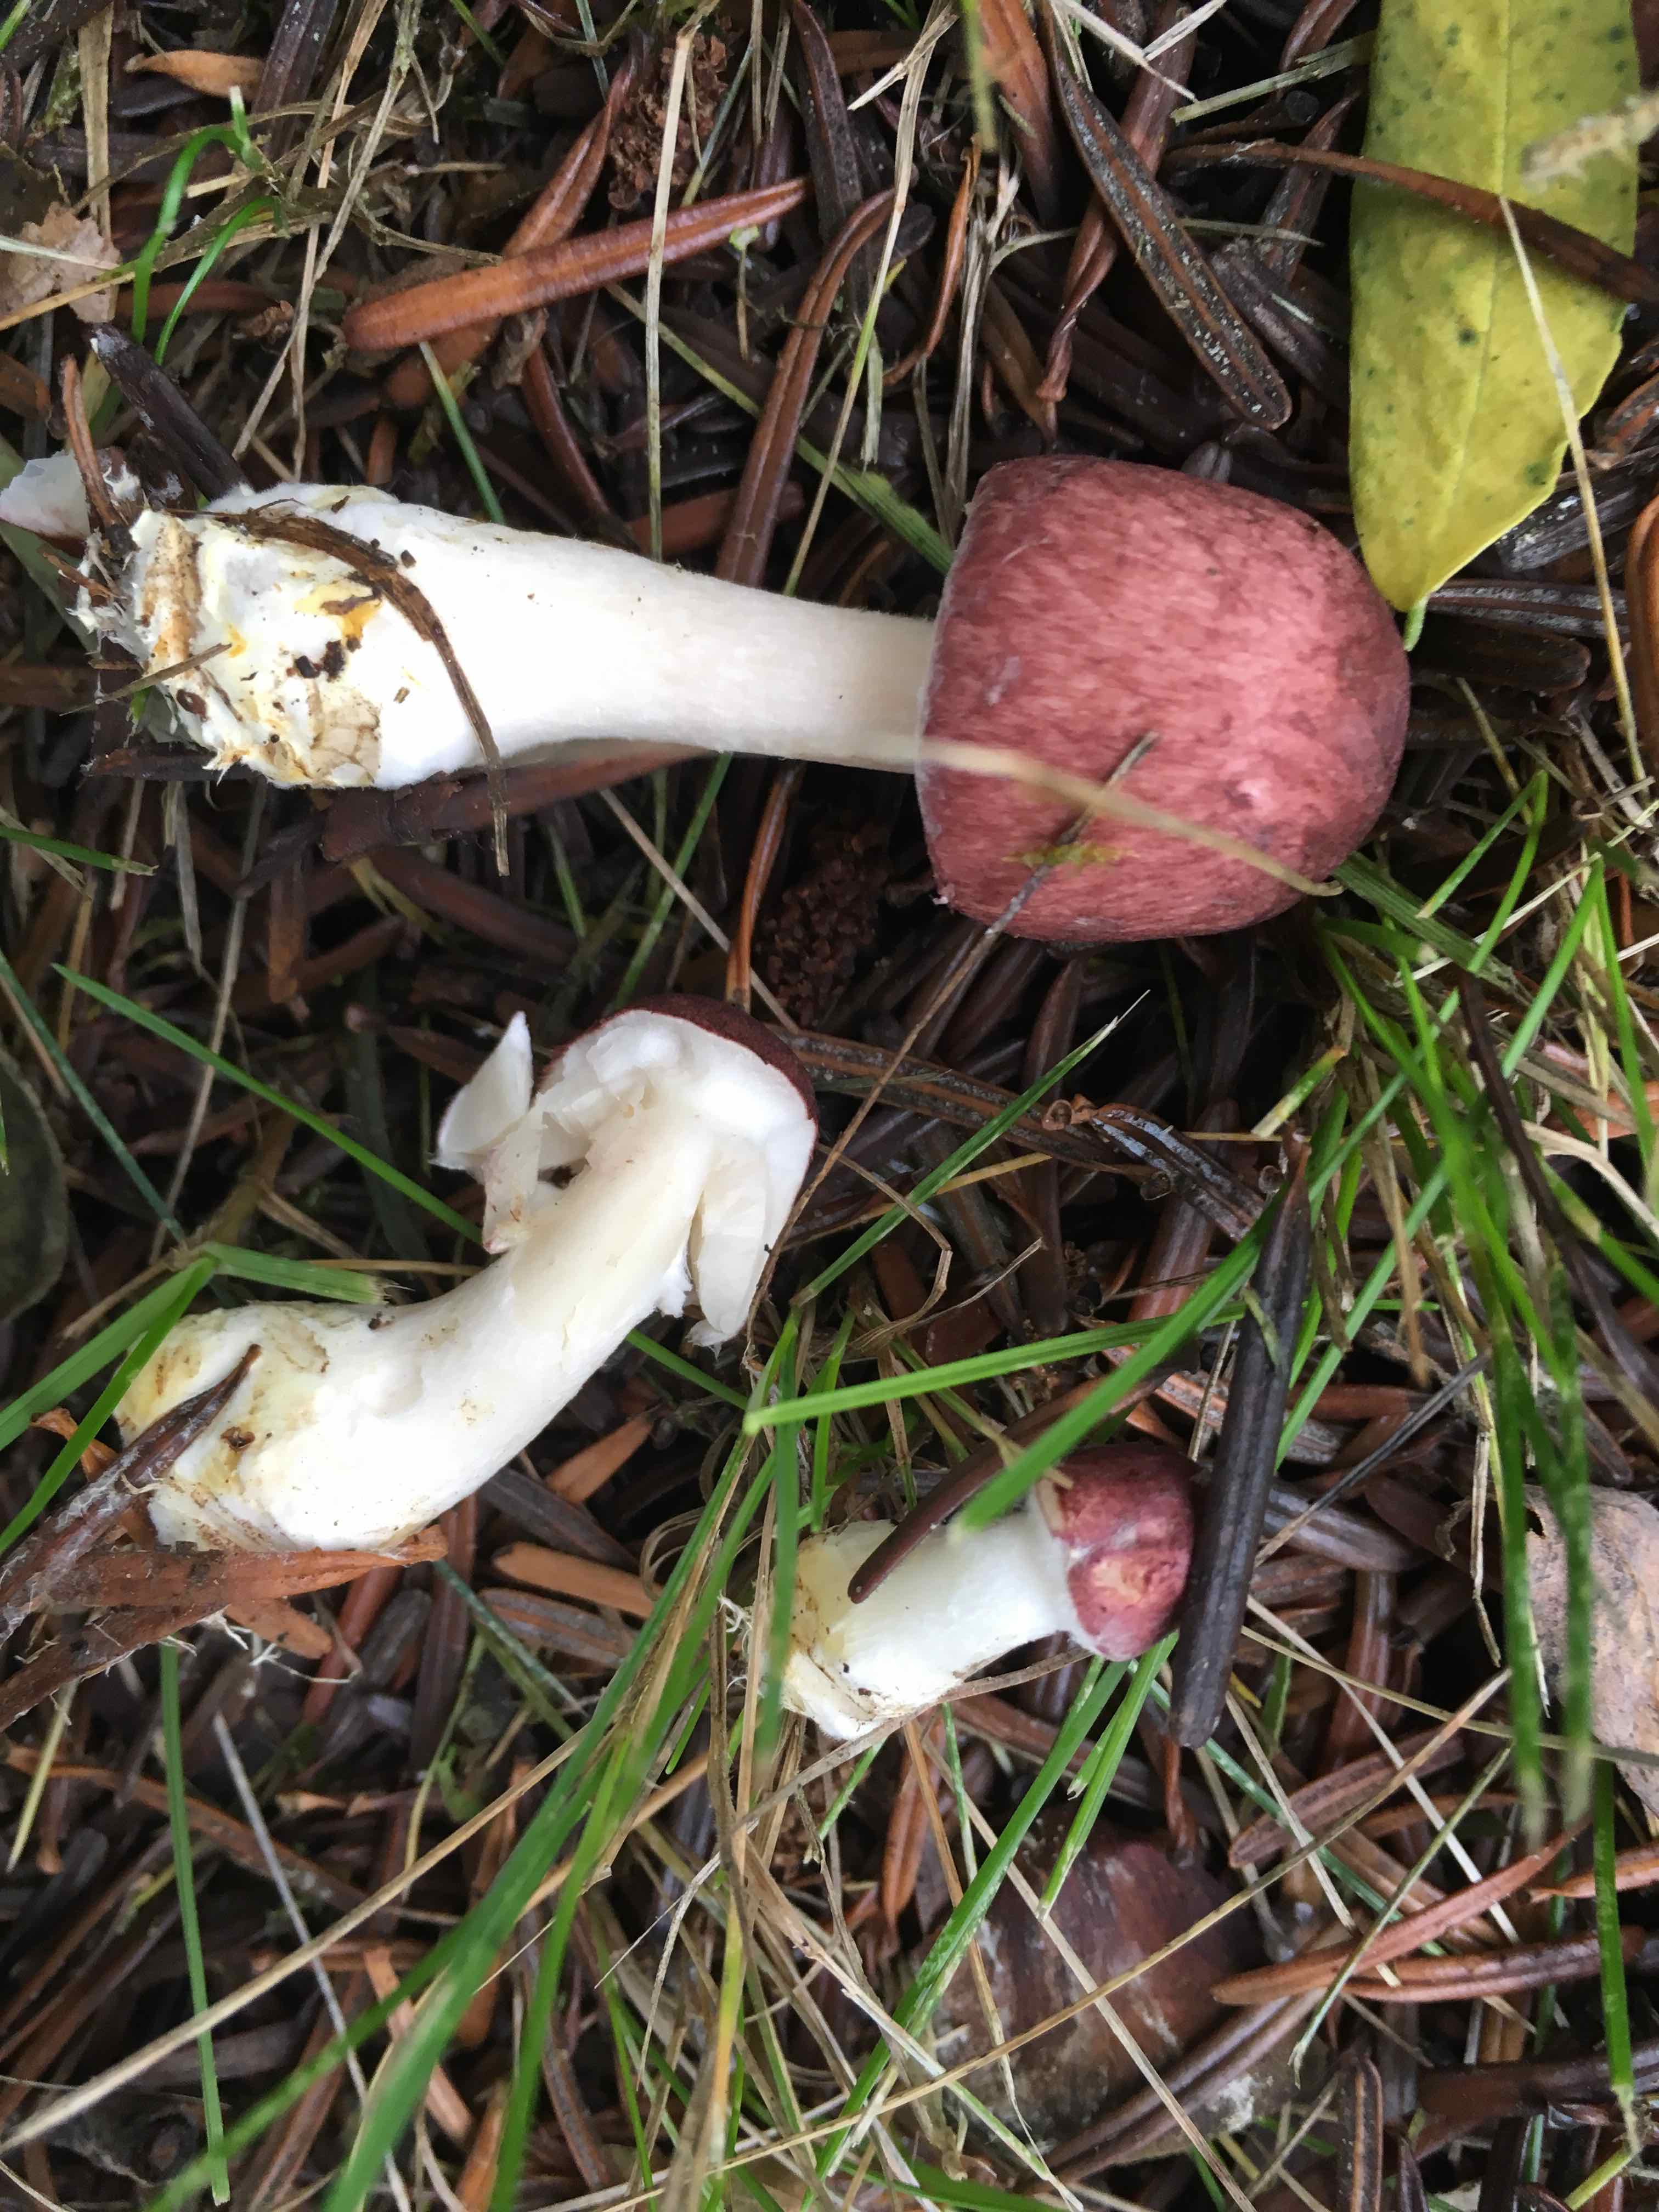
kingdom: Fungi
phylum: Basidiomycota
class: Agaricomycetes
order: Agaricales
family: Agaricaceae
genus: Agaricus
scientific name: Agaricus
